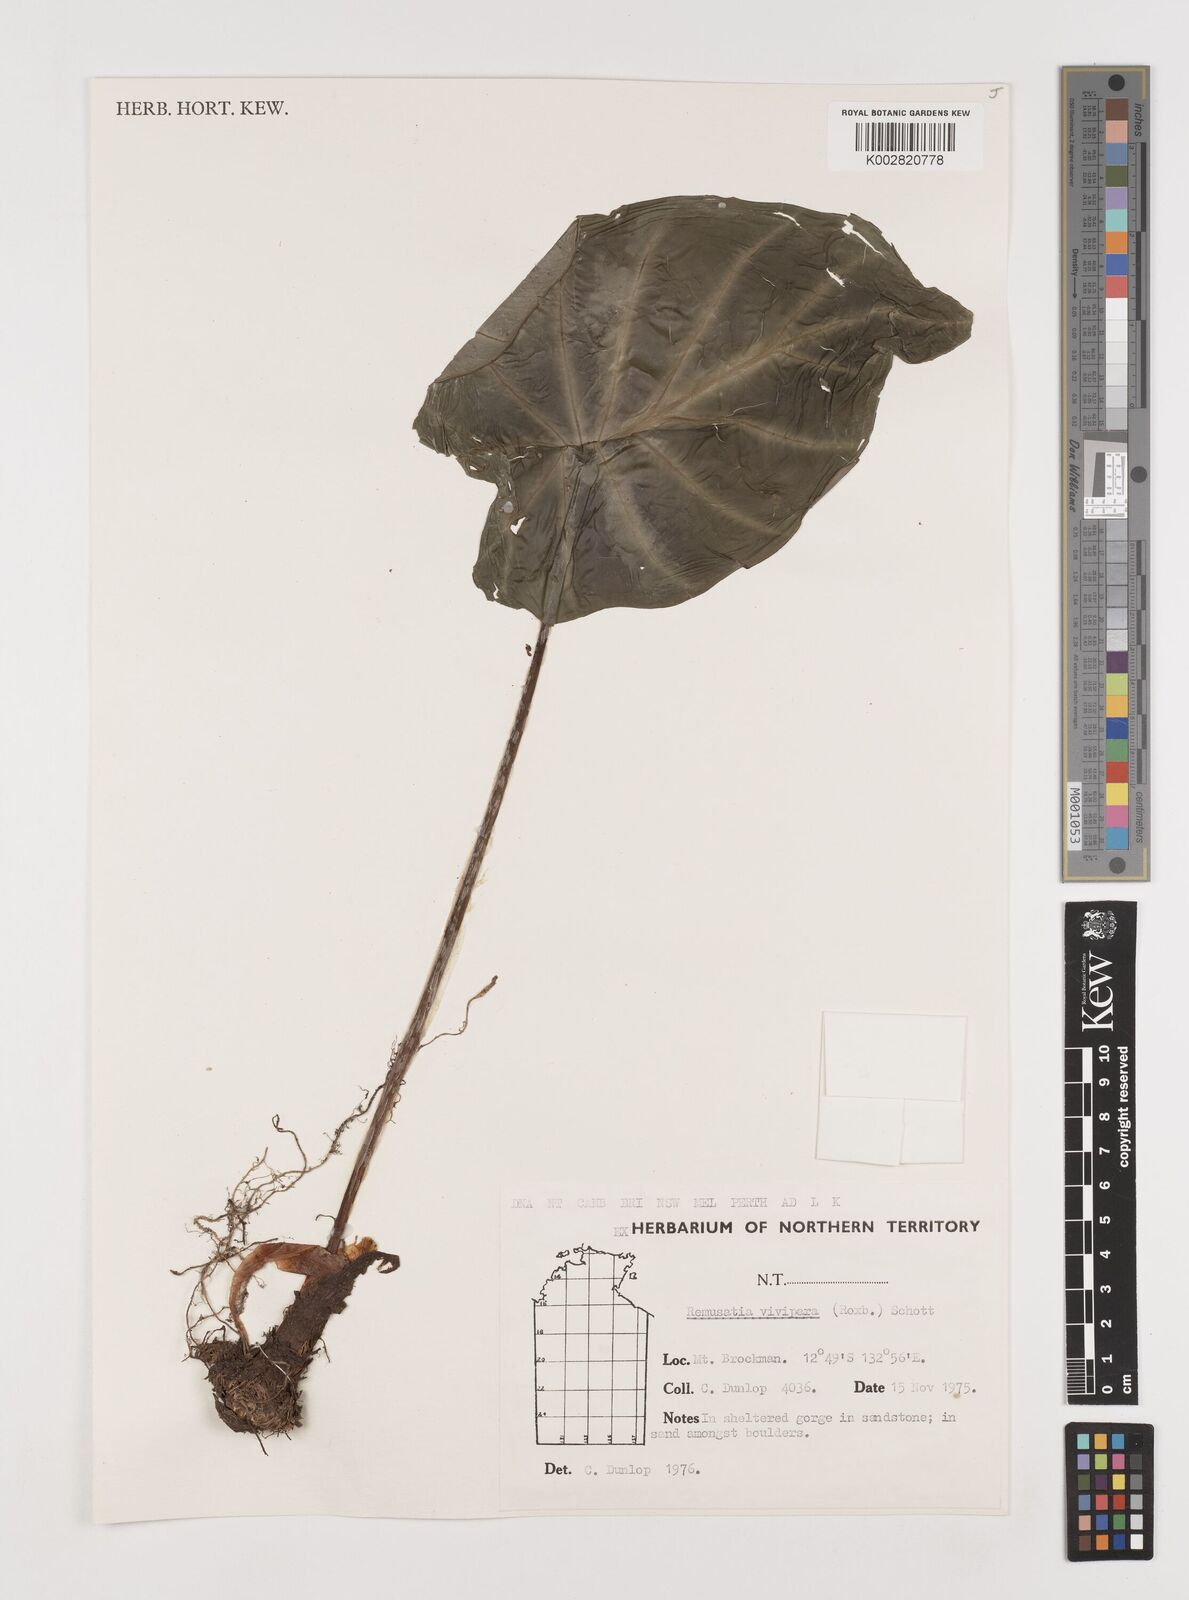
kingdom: Plantae
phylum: Tracheophyta
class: Liliopsida
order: Alismatales
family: Araceae
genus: Remusatia
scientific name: Remusatia vivipara
